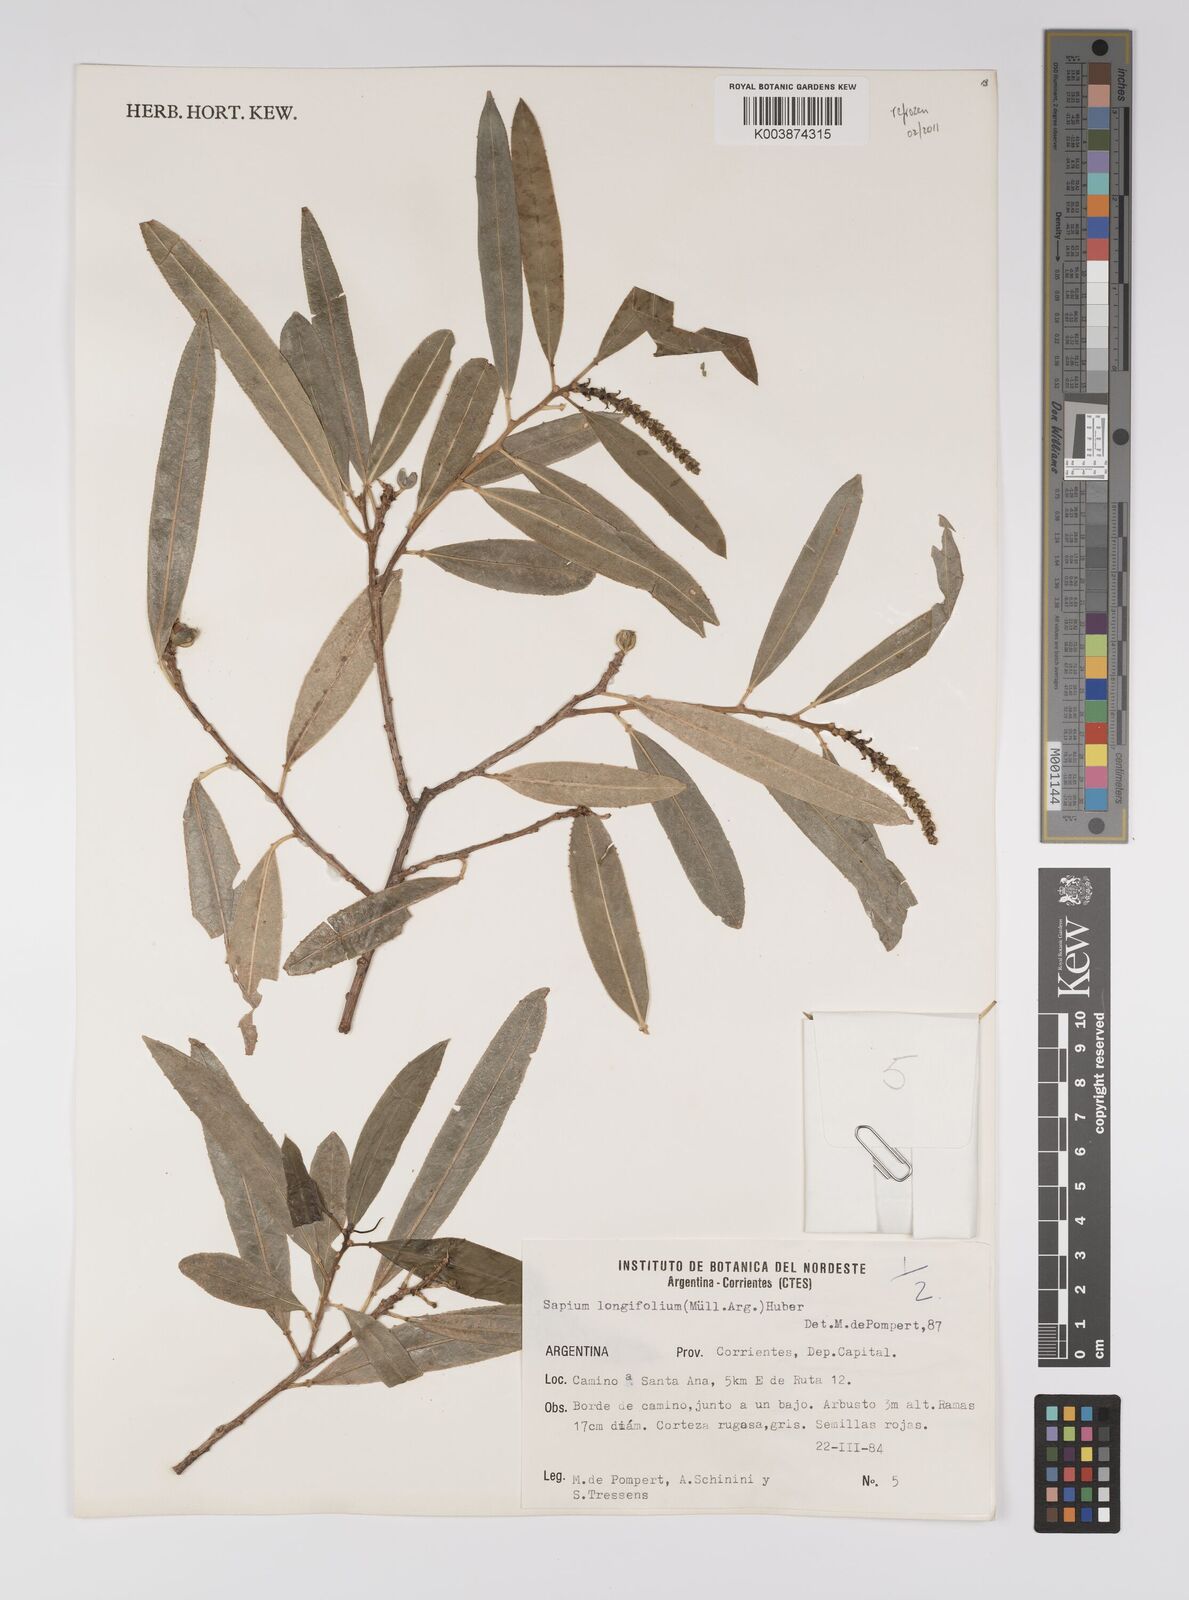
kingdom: Plantae
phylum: Tracheophyta
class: Magnoliopsida
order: Malpighiales
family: Euphorbiaceae
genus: Sapium
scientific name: Sapium haematospermum
